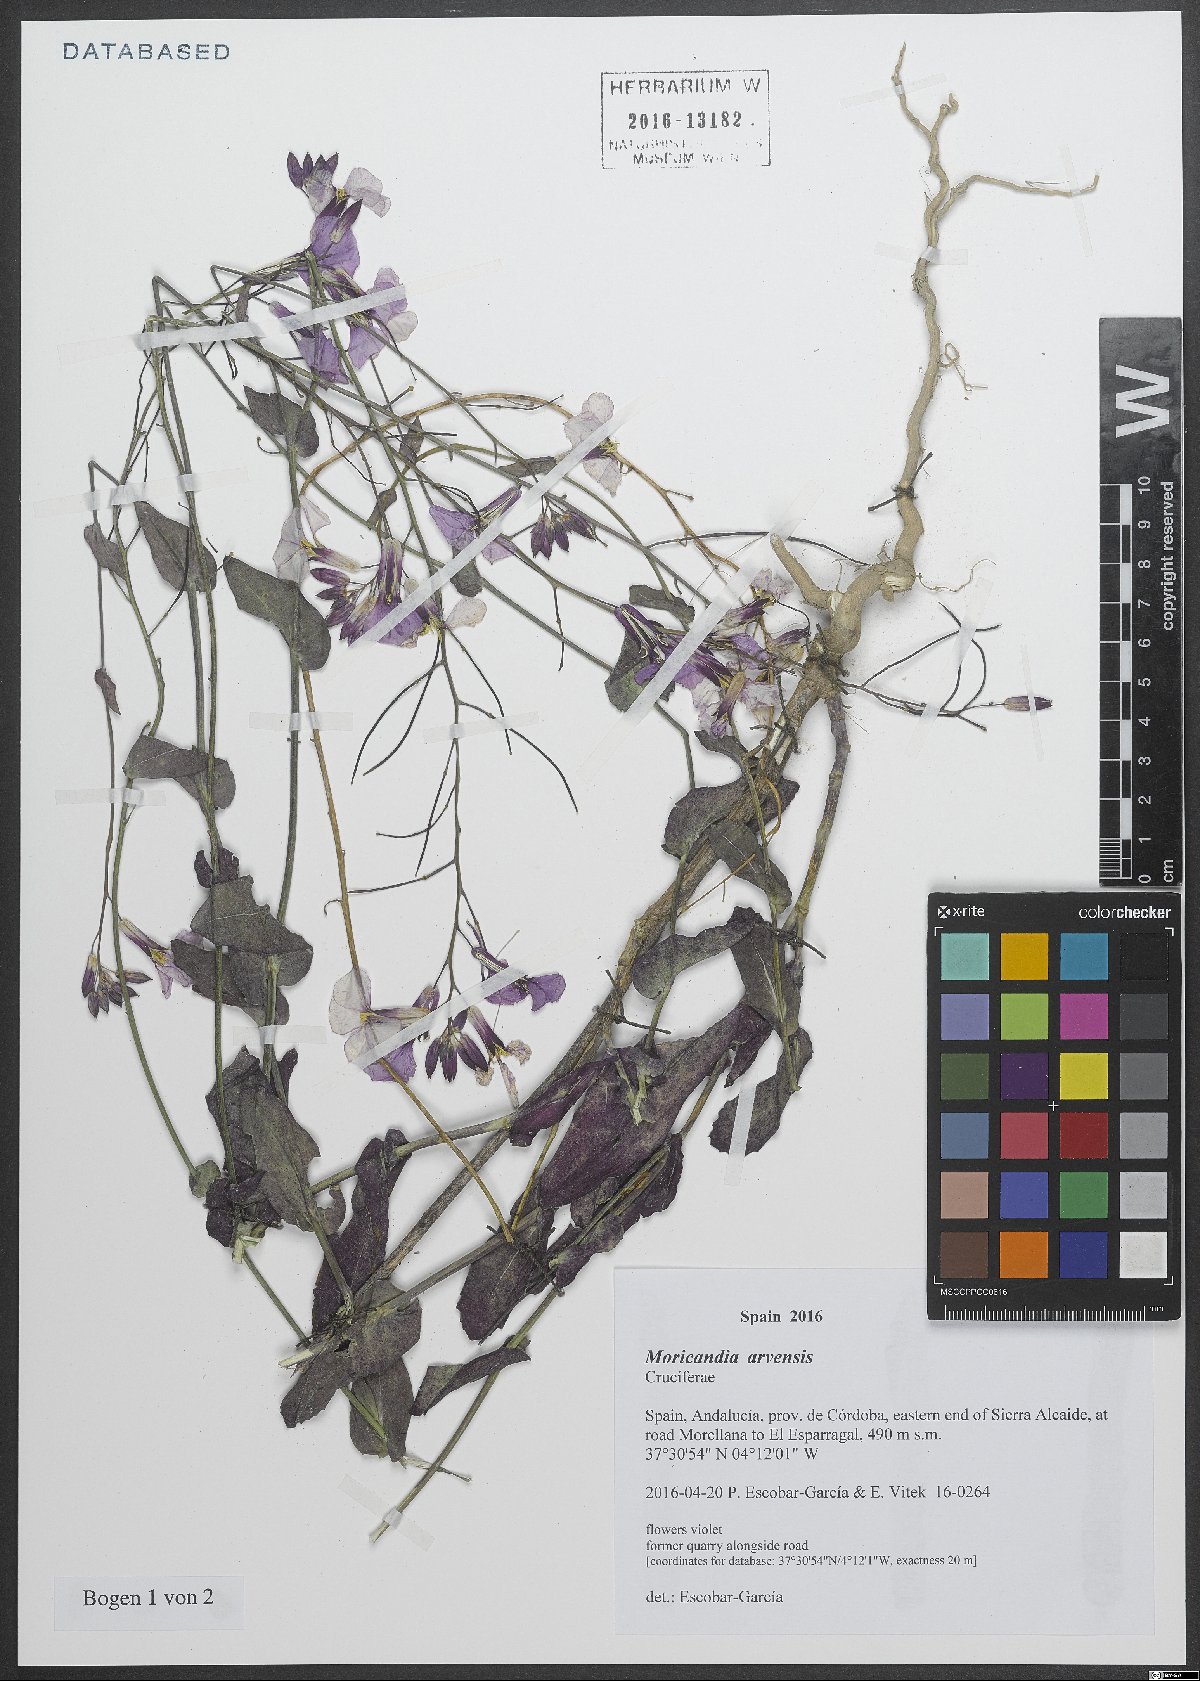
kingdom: Plantae
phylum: Tracheophyta
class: Magnoliopsida
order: Brassicales
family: Brassicaceae
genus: Moricandia
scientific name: Moricandia arvensis
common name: Purple mistress
